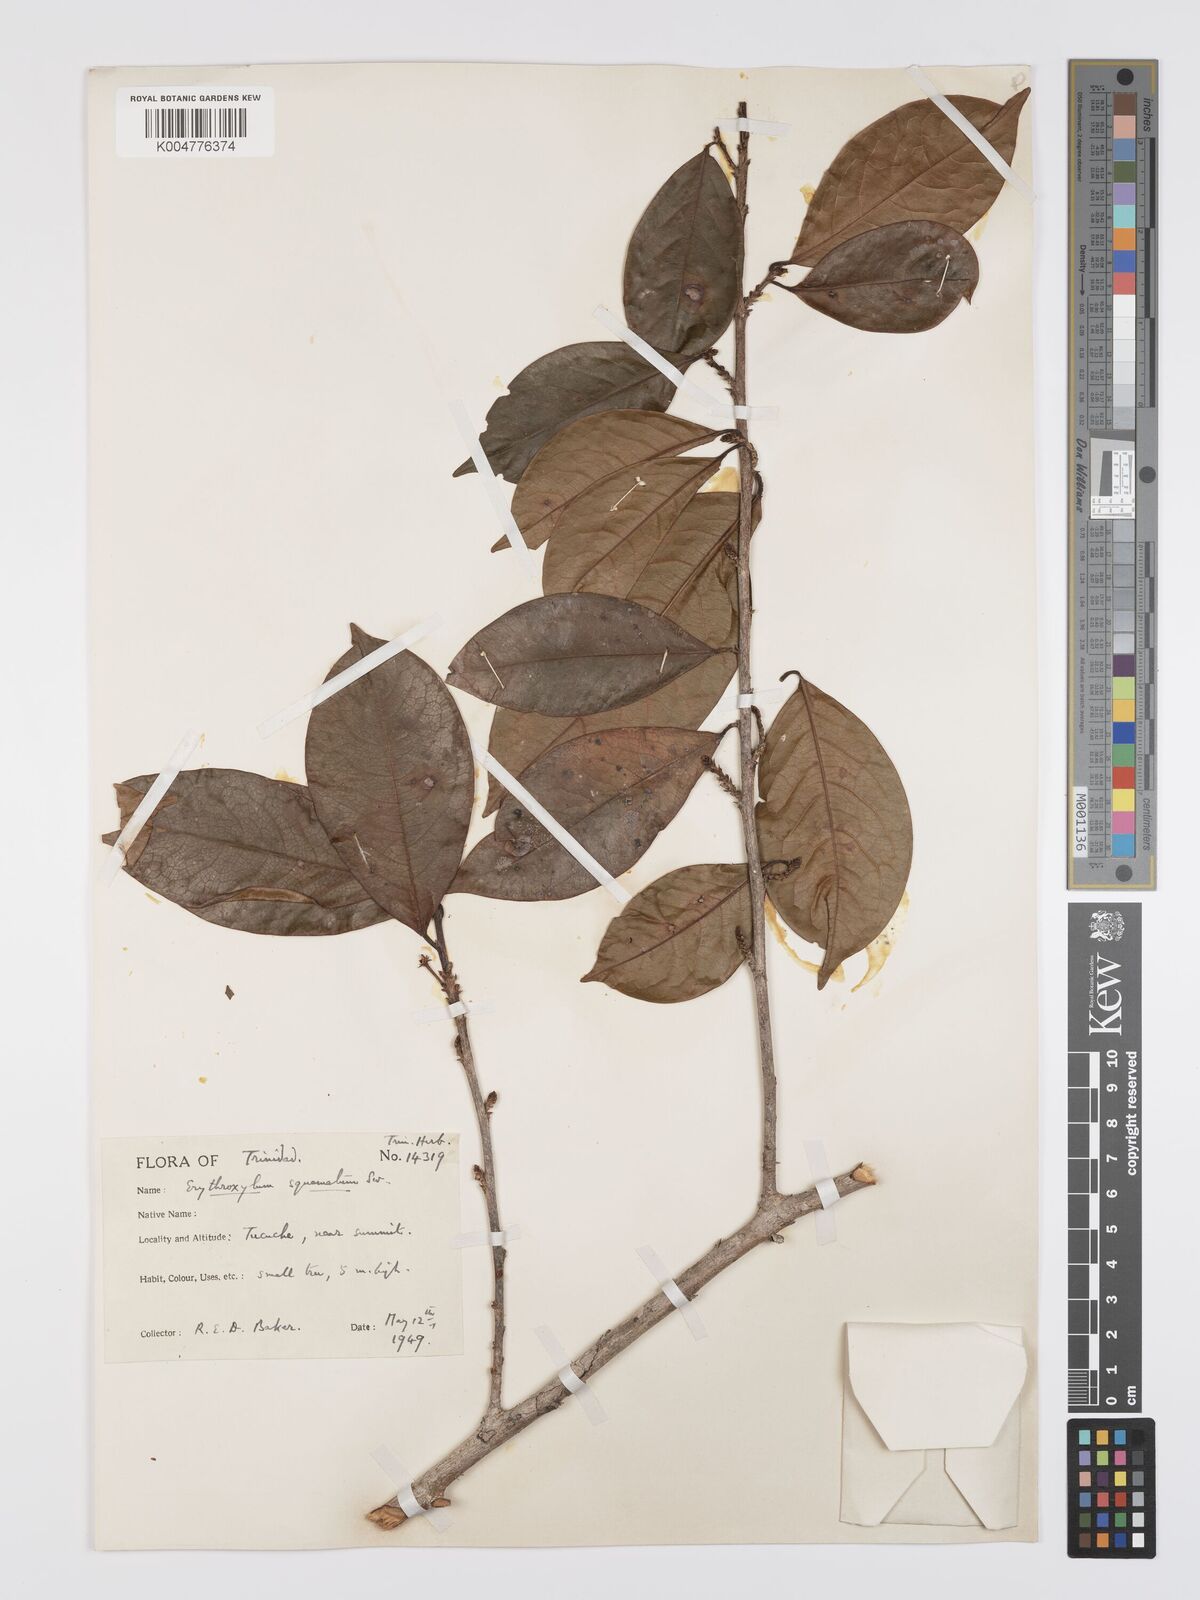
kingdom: Plantae
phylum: Tracheophyta
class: Magnoliopsida
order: Malpighiales
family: Erythroxylaceae
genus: Erythroxylum
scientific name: Erythroxylum squamatum
